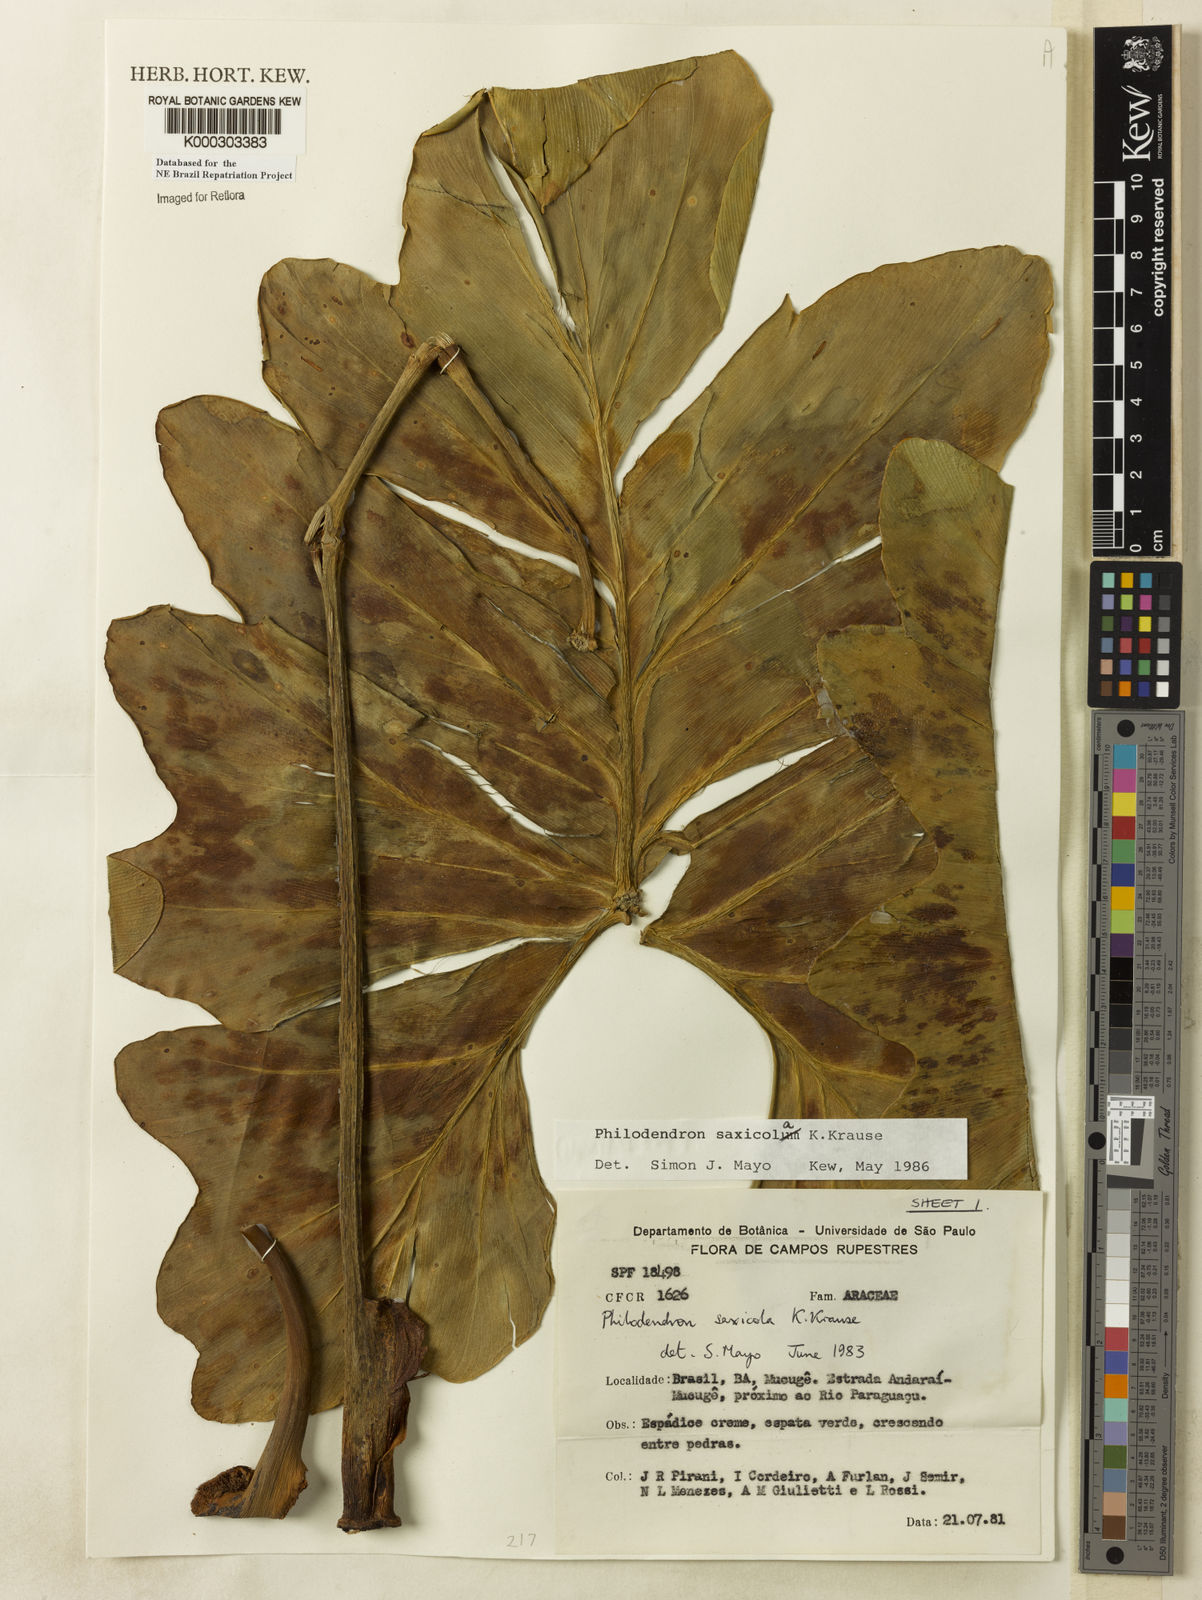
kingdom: Plantae
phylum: Tracheophyta
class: Liliopsida
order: Alismatales
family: Araceae
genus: Thaumatophyllum
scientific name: Thaumatophyllum saxicola
